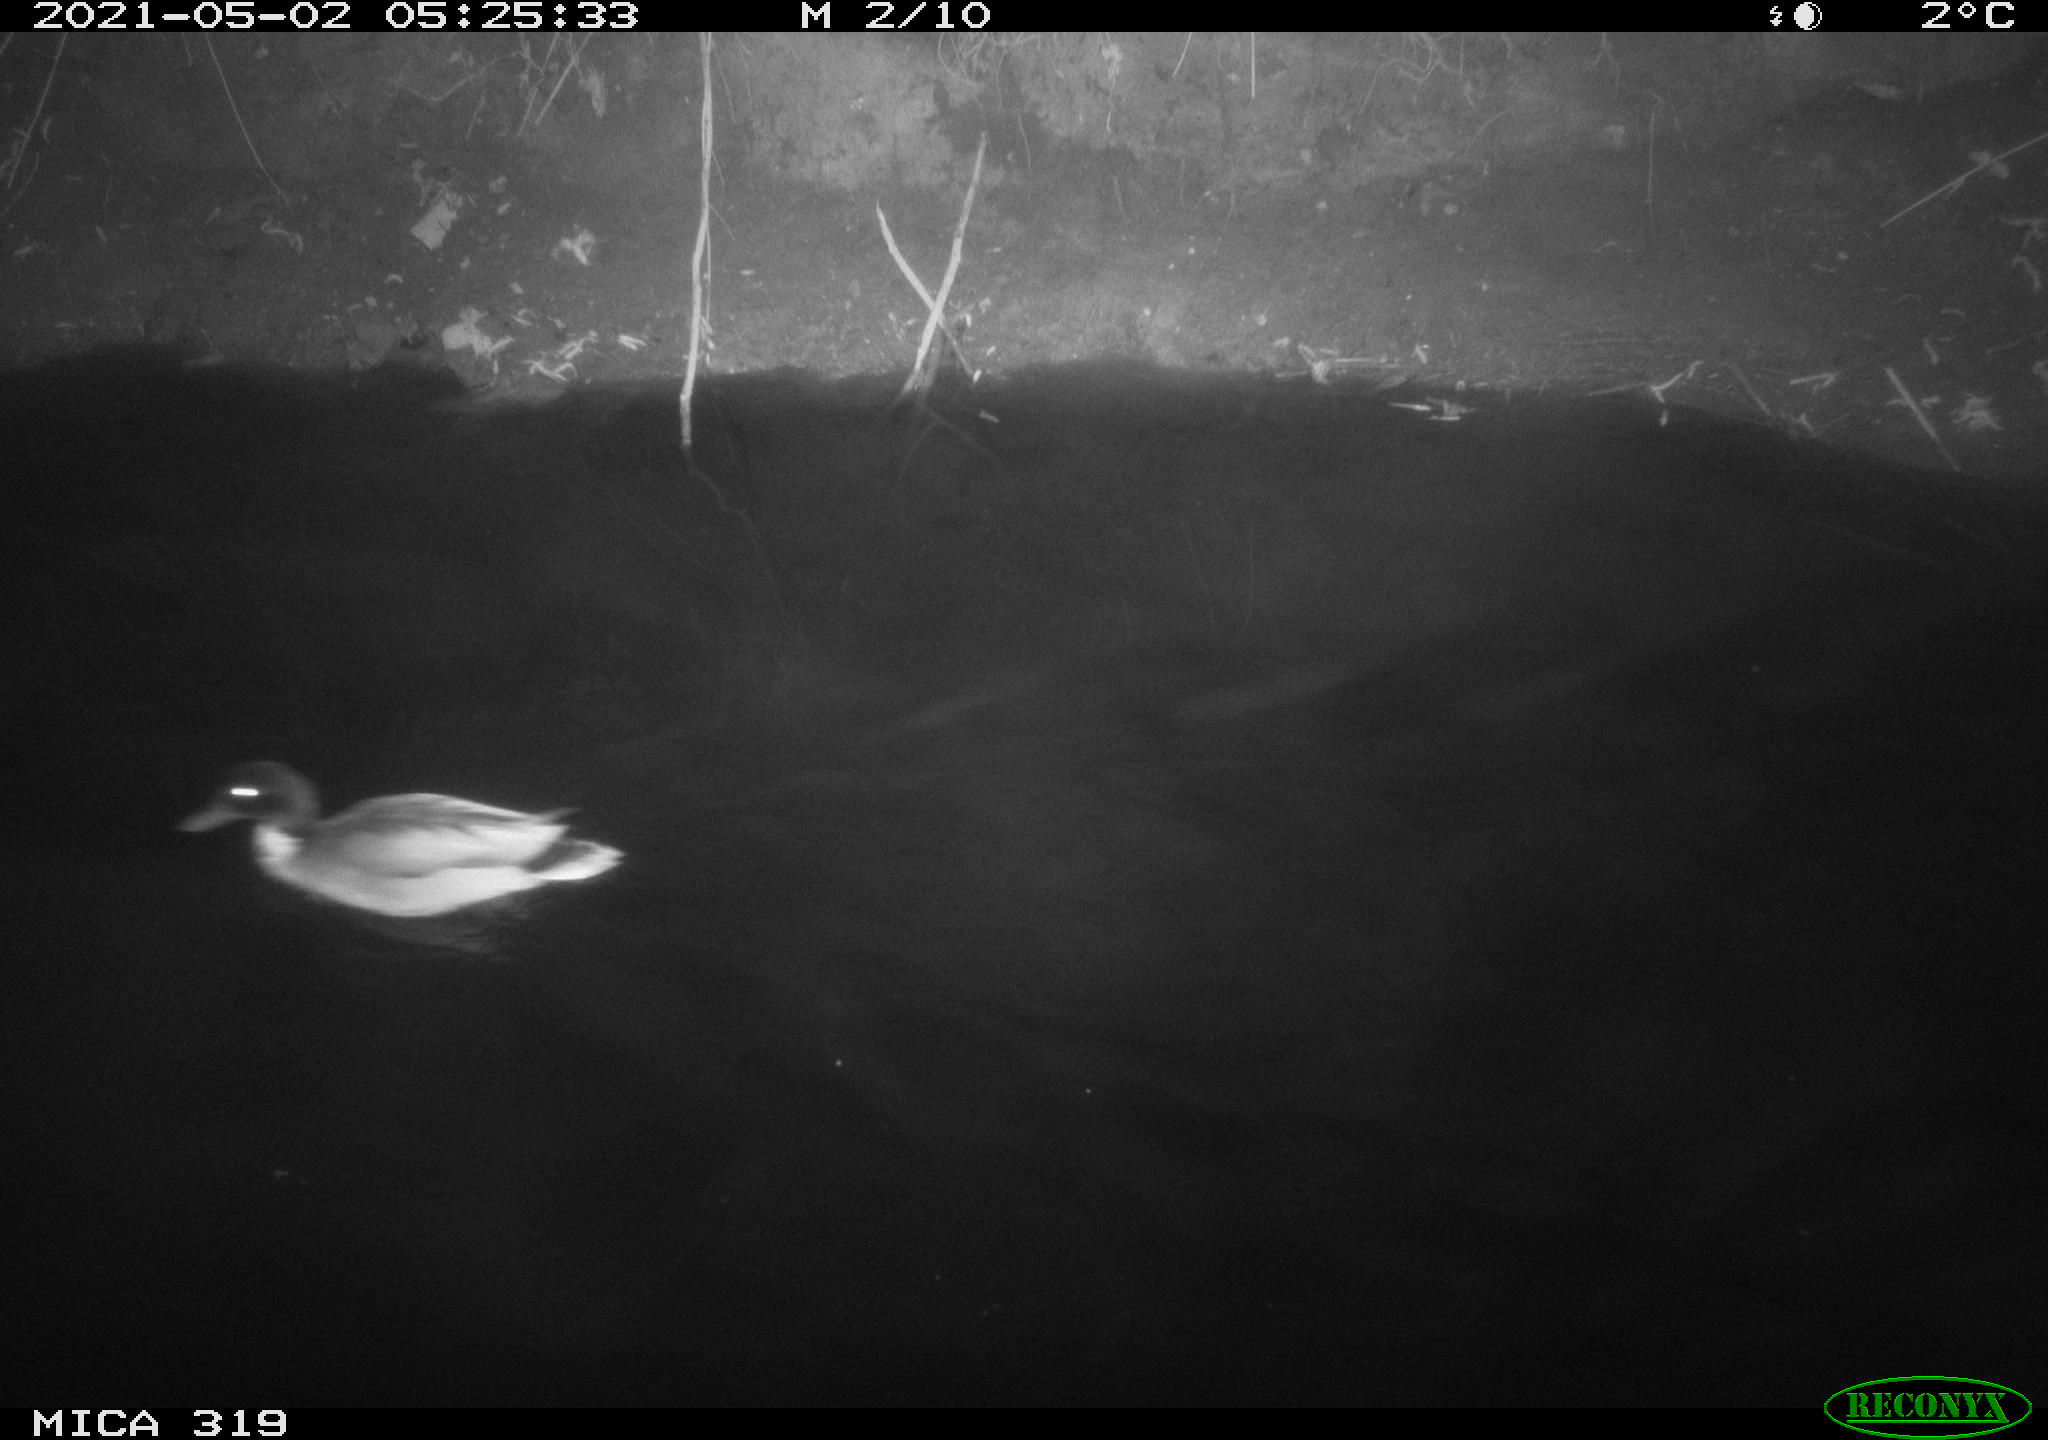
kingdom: Animalia
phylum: Chordata
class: Aves
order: Anseriformes
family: Anatidae
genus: Anas
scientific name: Anas platyrhynchos
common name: Mallard
